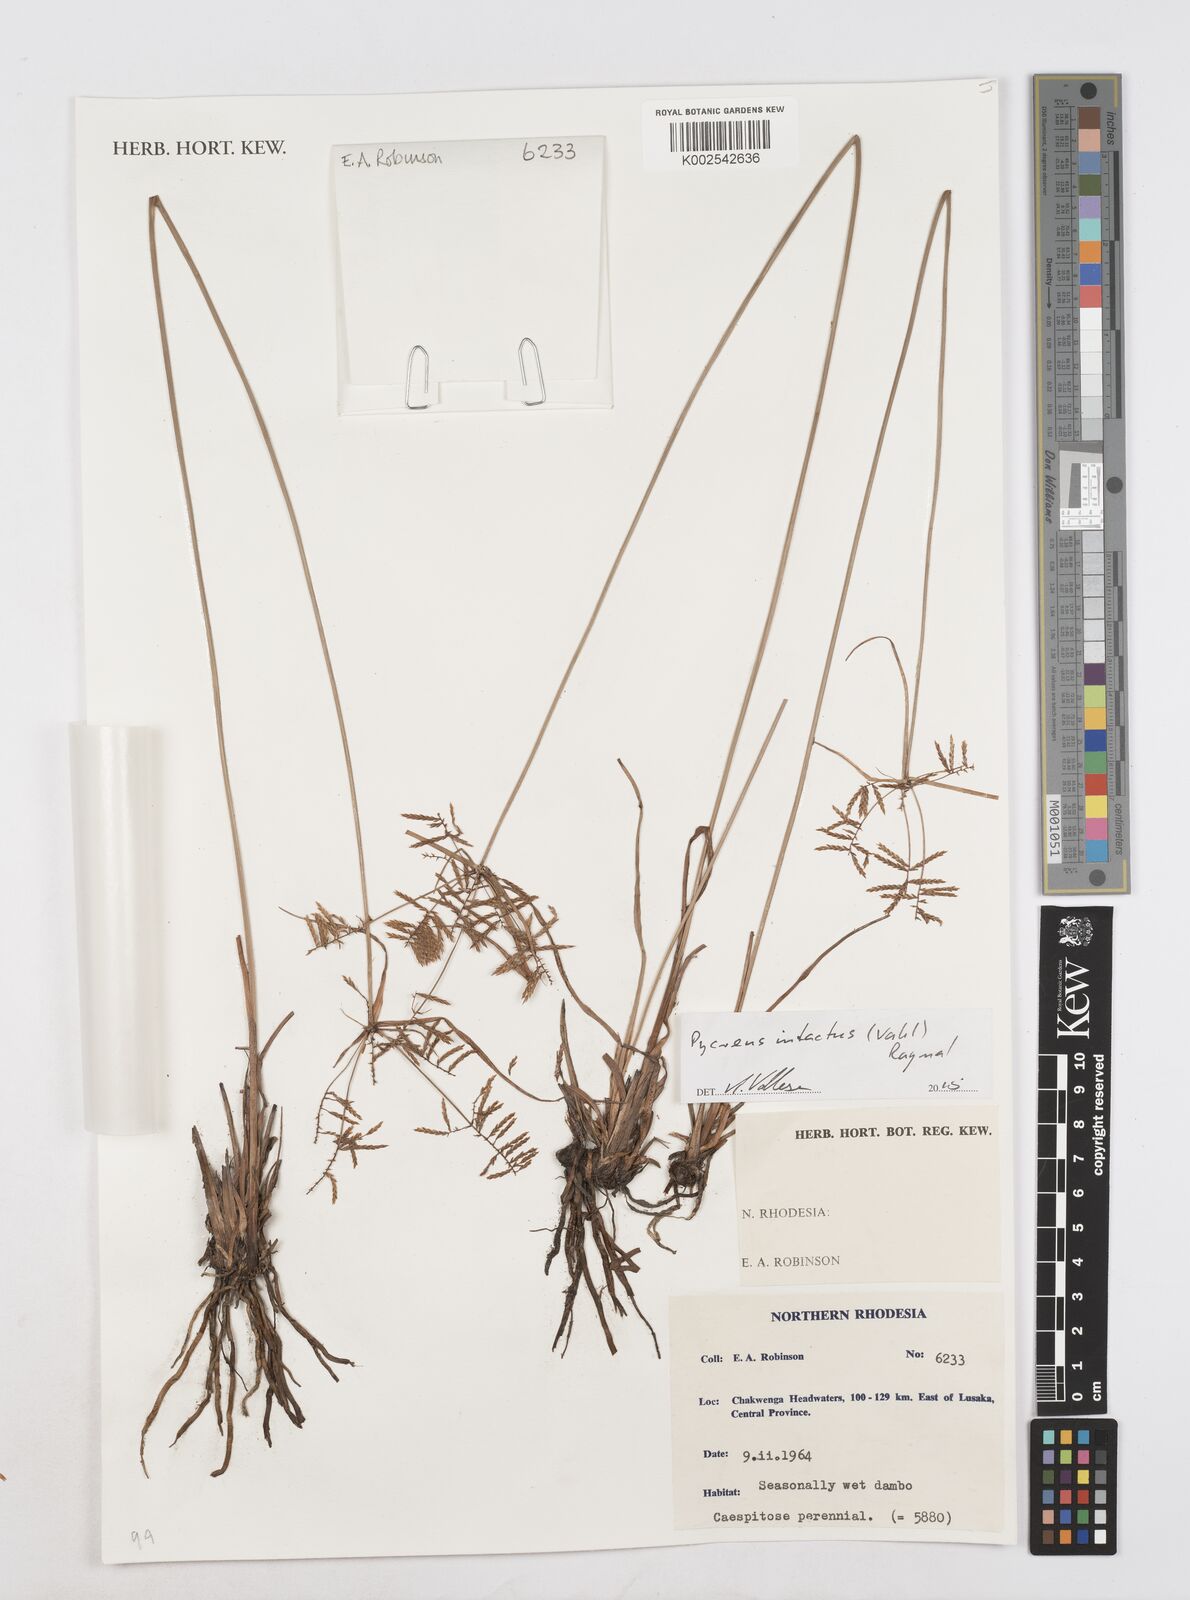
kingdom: Plantae
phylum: Tracheophyta
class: Liliopsida
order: Poales
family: Cyperaceae
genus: Cyperus
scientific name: Cyperus intactus
